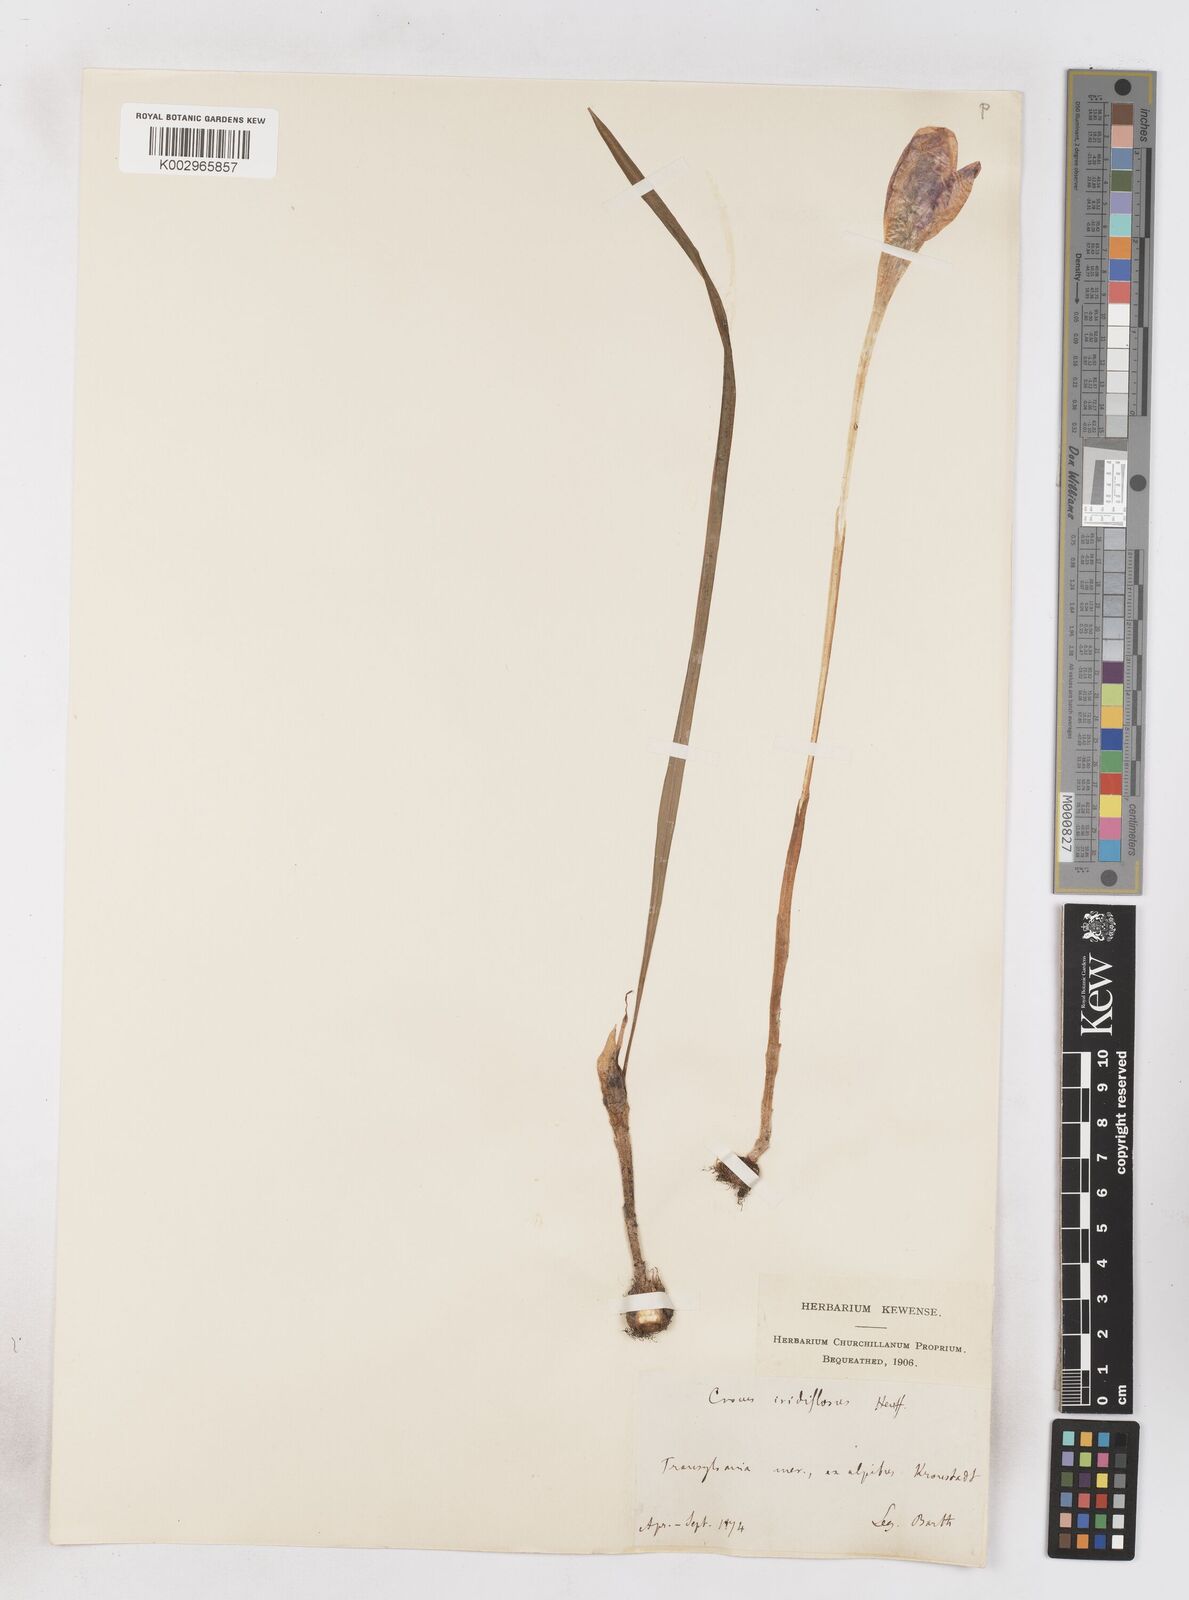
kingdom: Plantae
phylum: Tracheophyta
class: Liliopsida
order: Asparagales
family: Iridaceae
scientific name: Iridaceae
